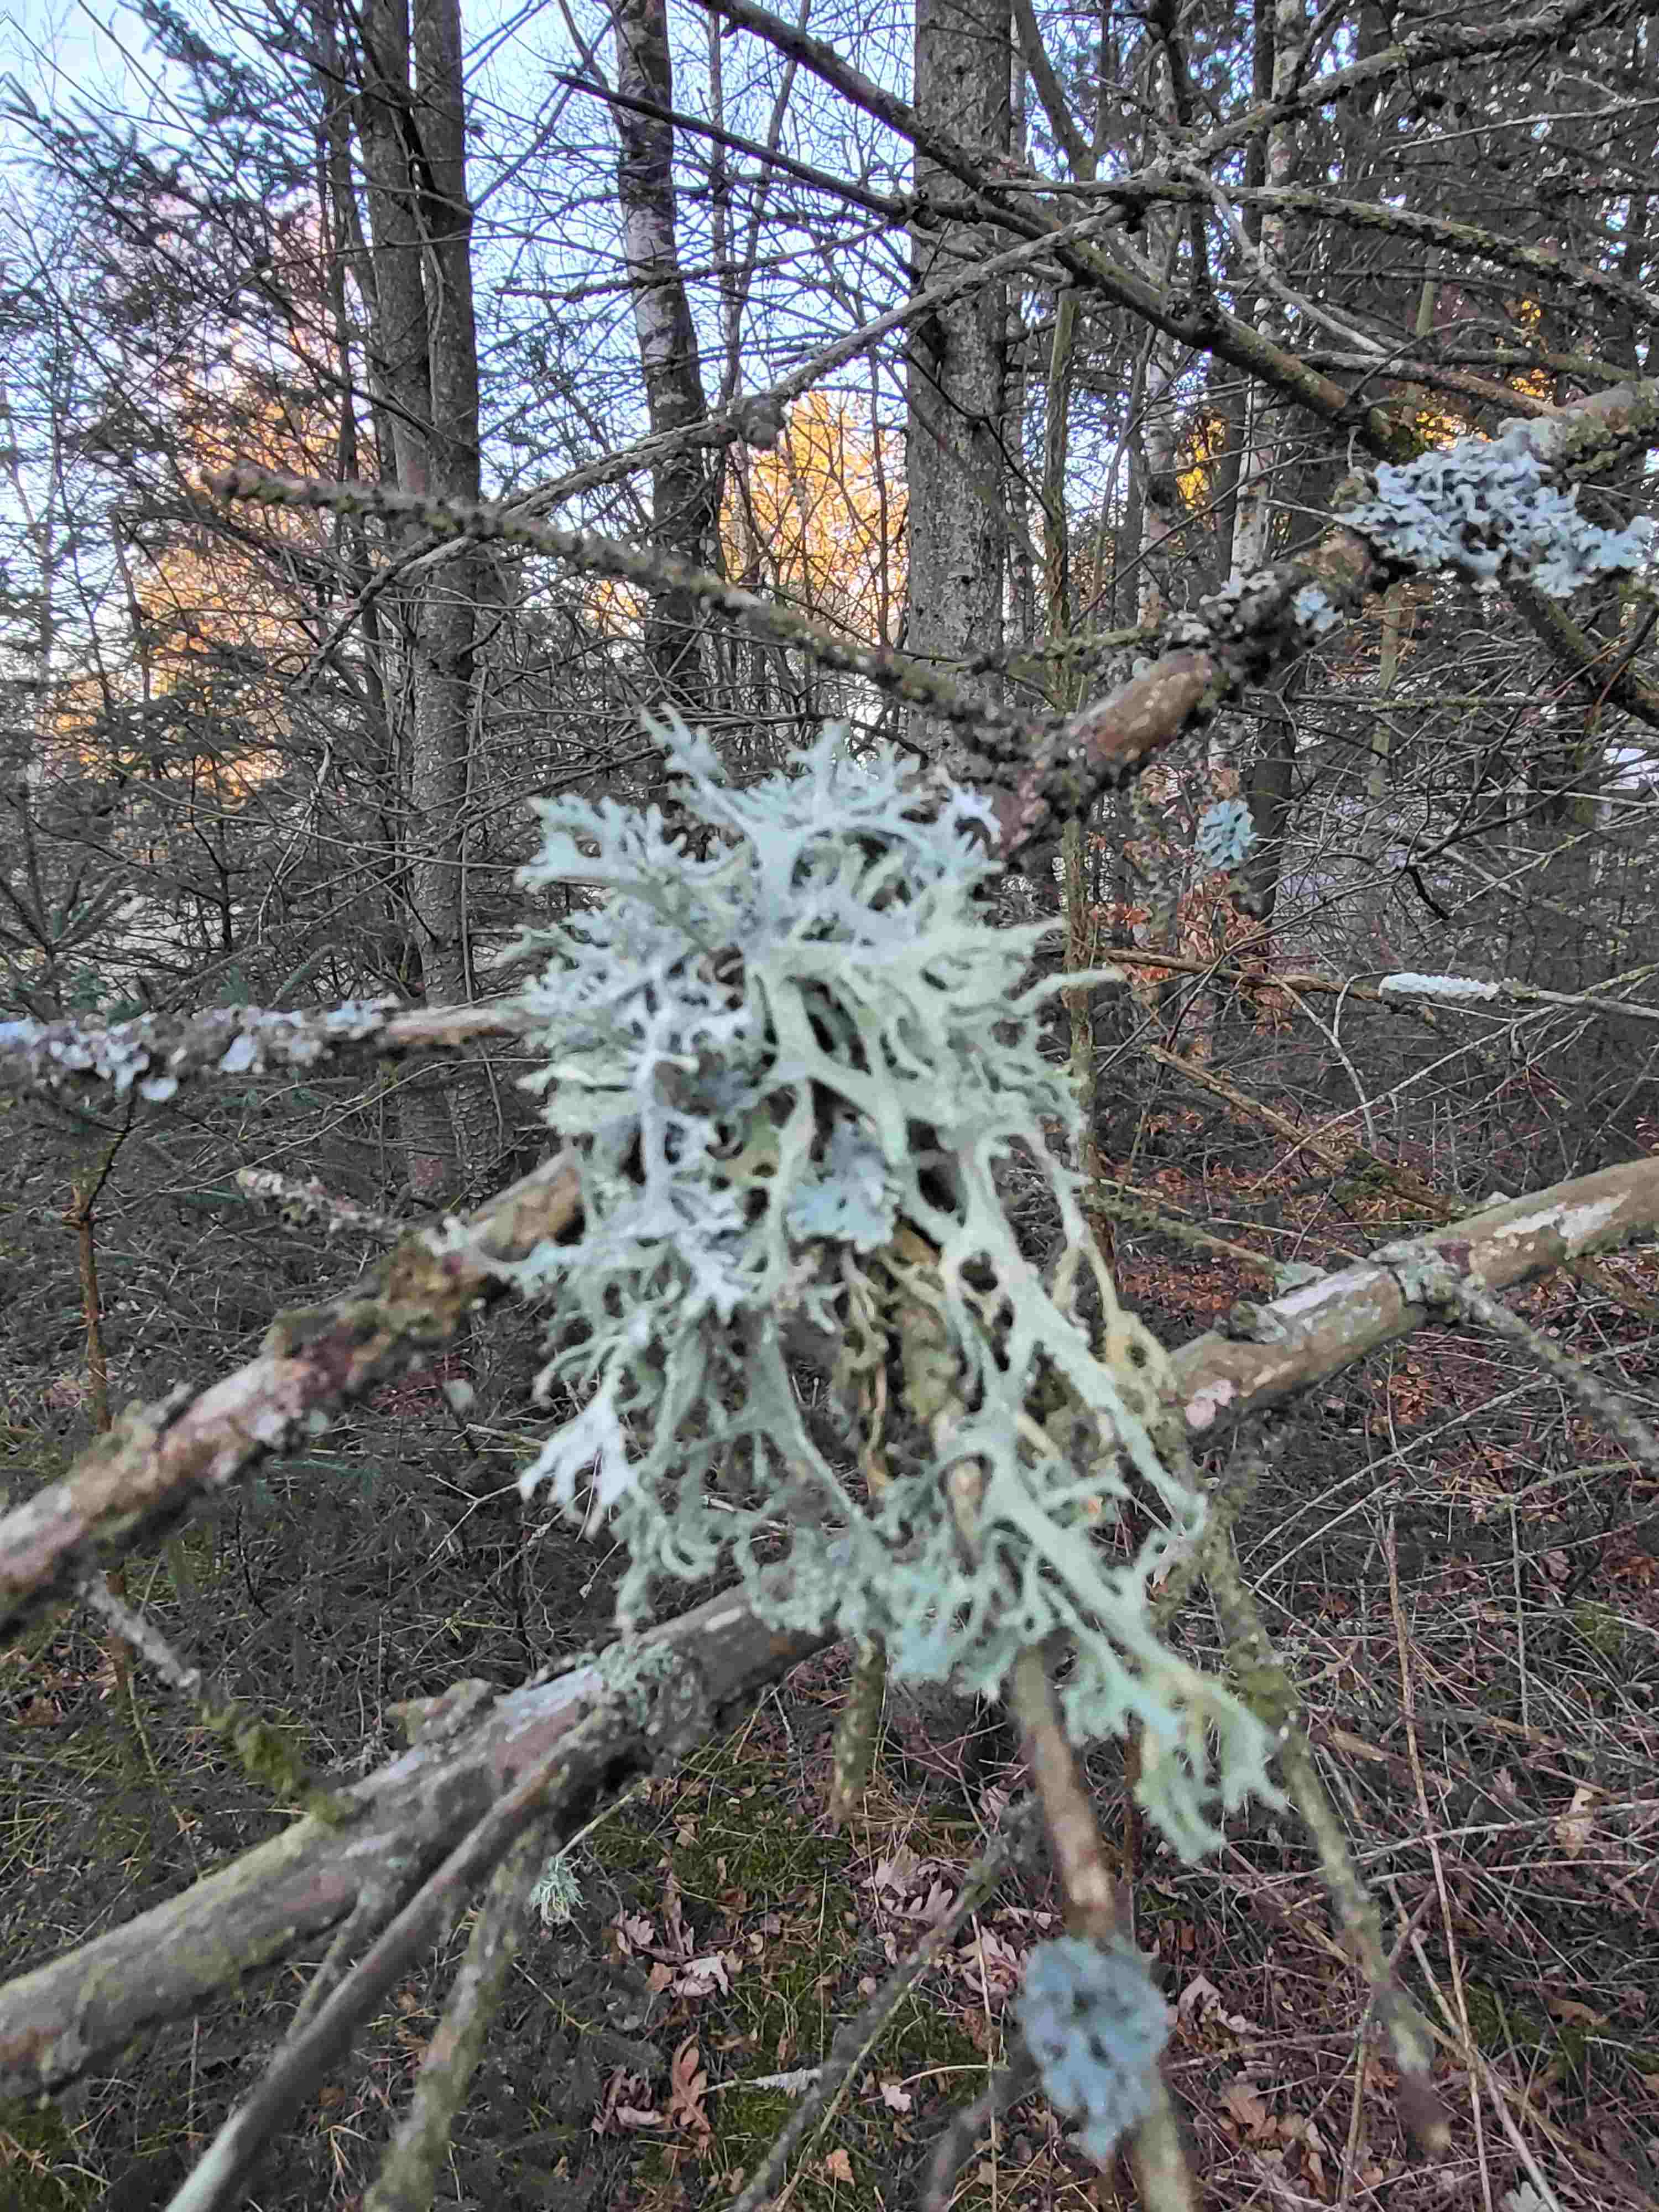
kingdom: Fungi
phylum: Ascomycota
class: Lecanoromycetes
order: Lecanorales
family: Parmeliaceae
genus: Evernia
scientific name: Evernia prunastri
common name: almindelig slåenlav
